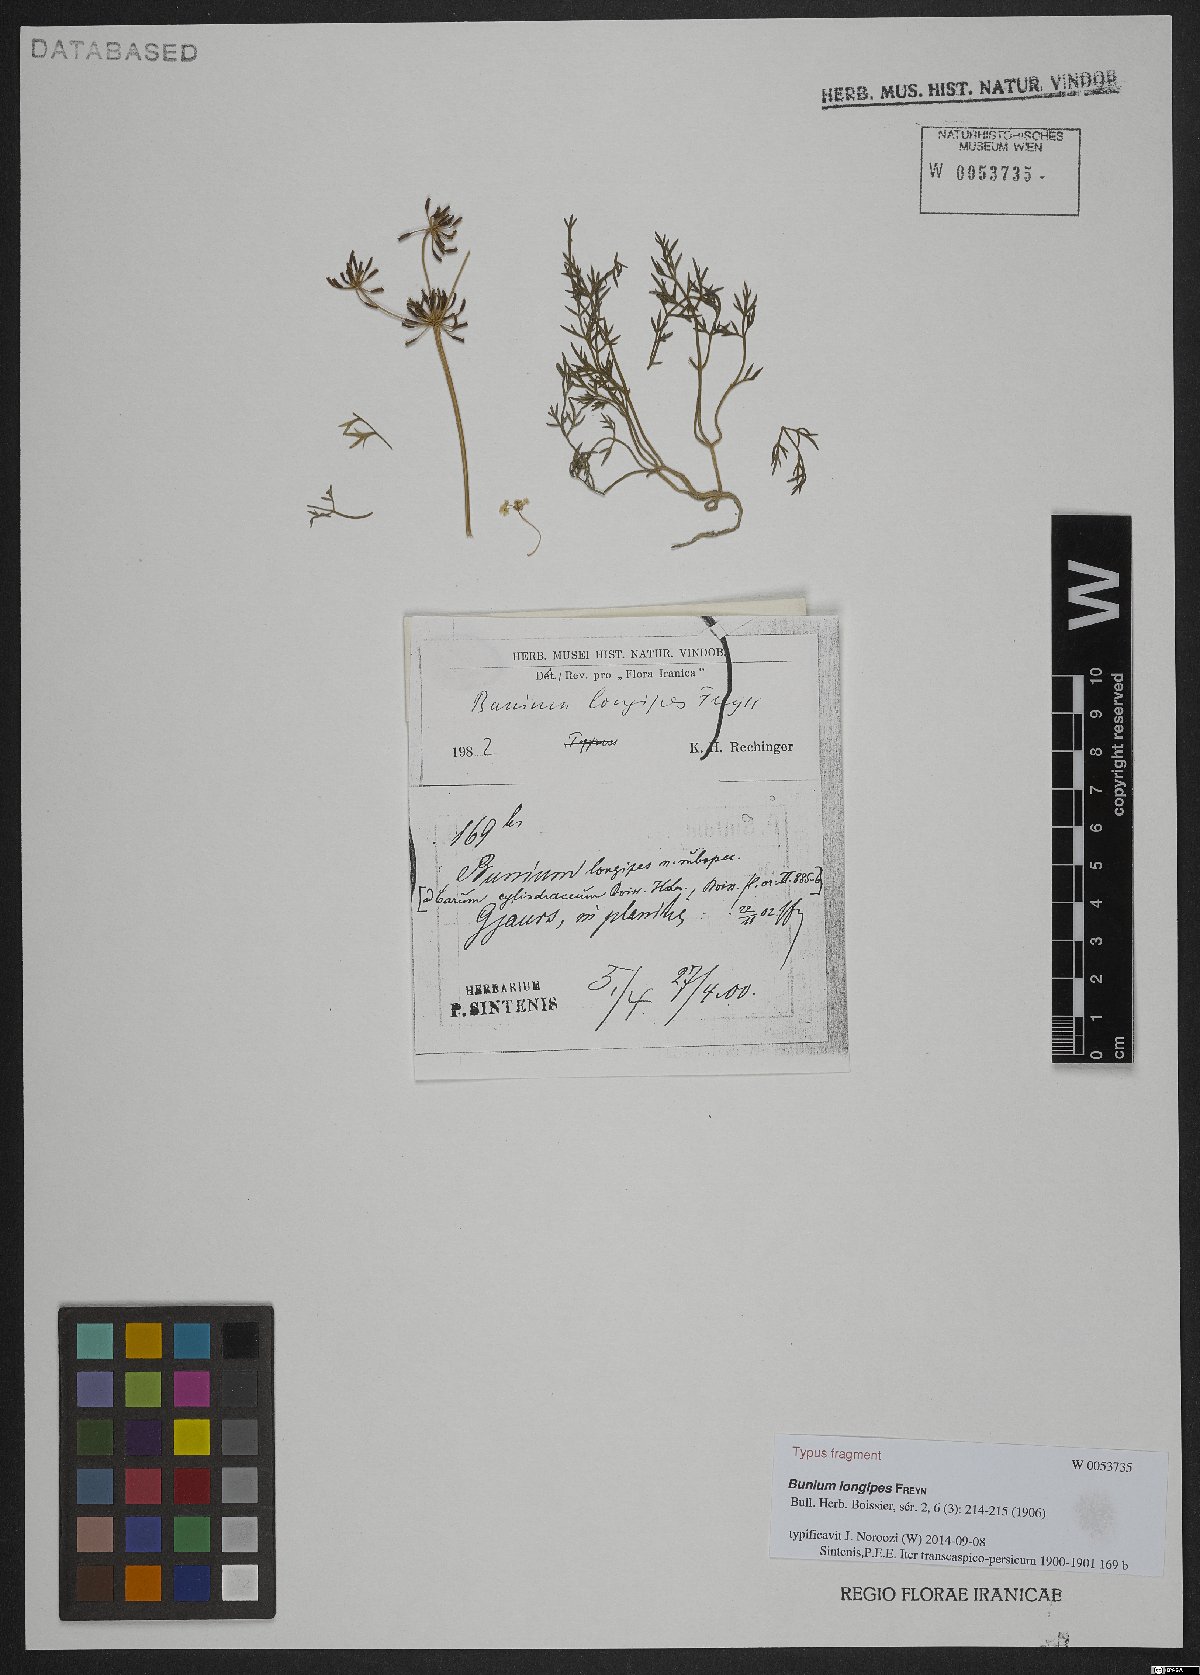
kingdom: Plantae
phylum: Tracheophyta
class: Magnoliopsida
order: Apiales
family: Apiaceae
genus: Elwendia
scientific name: Elwendia longipes
